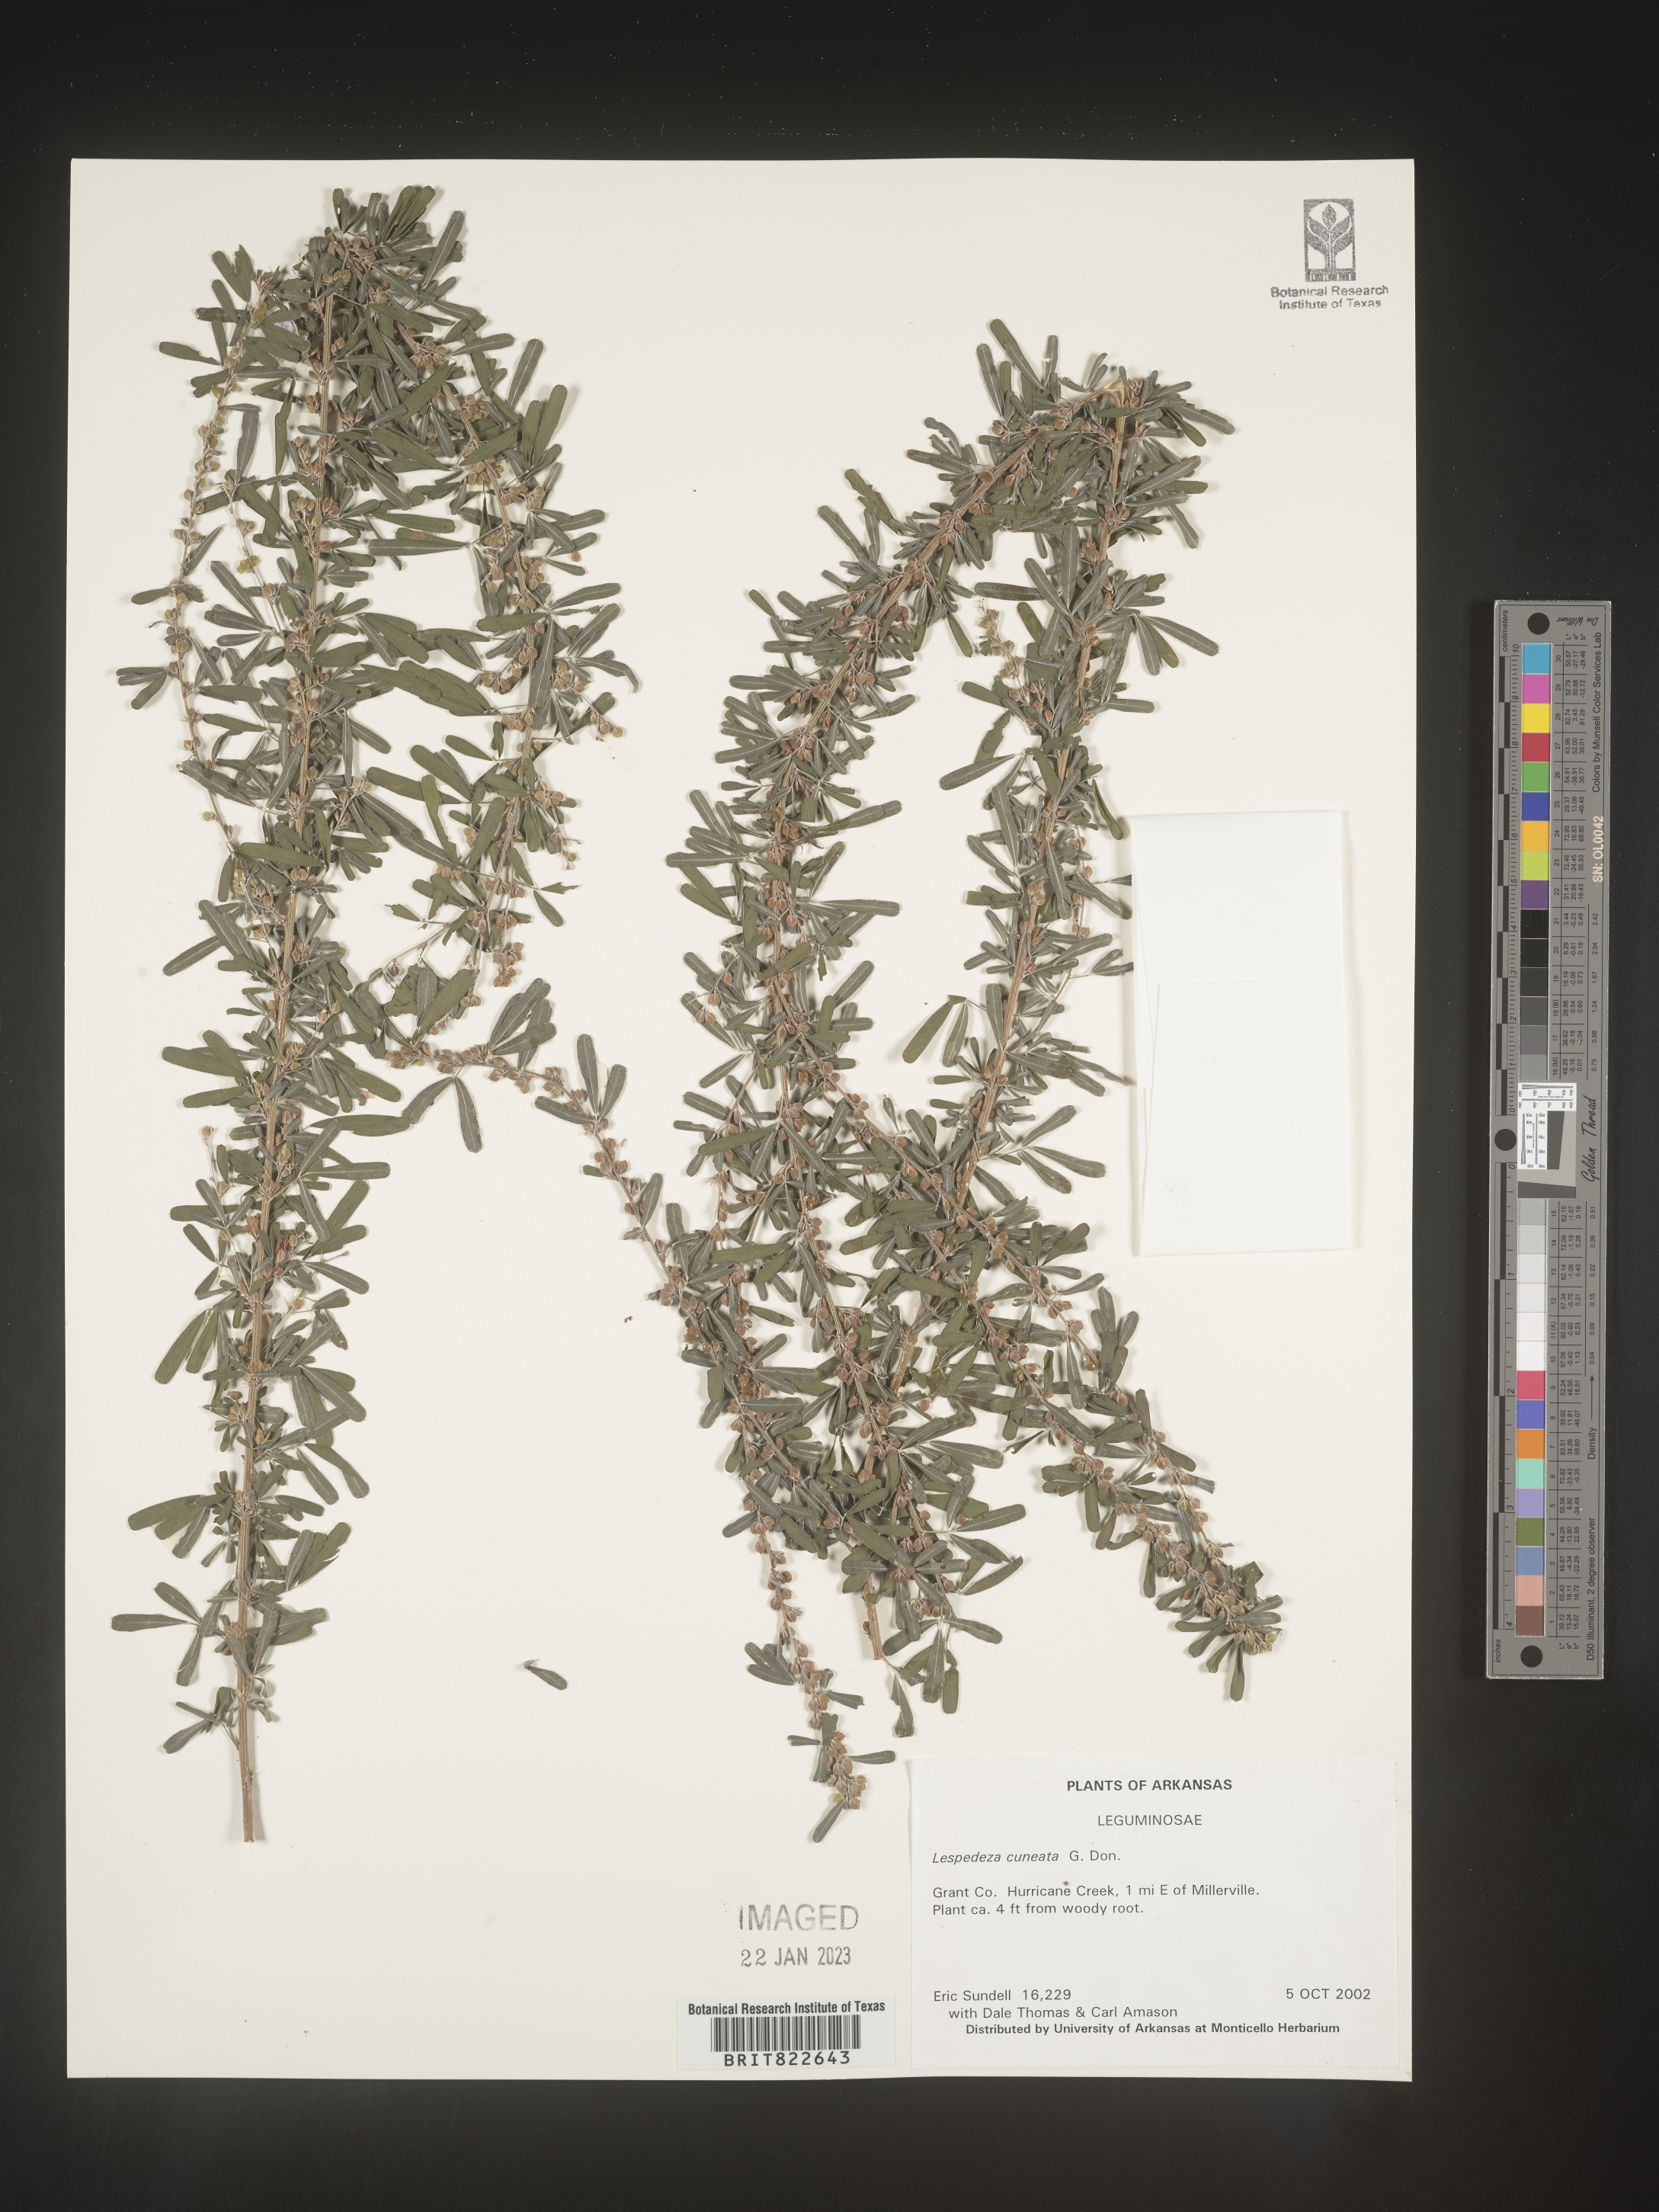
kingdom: Plantae
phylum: Tracheophyta
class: Magnoliopsida
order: Fabales
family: Fabaceae
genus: Lespedeza
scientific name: Lespedeza cuneata
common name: Chinese bush-clover
